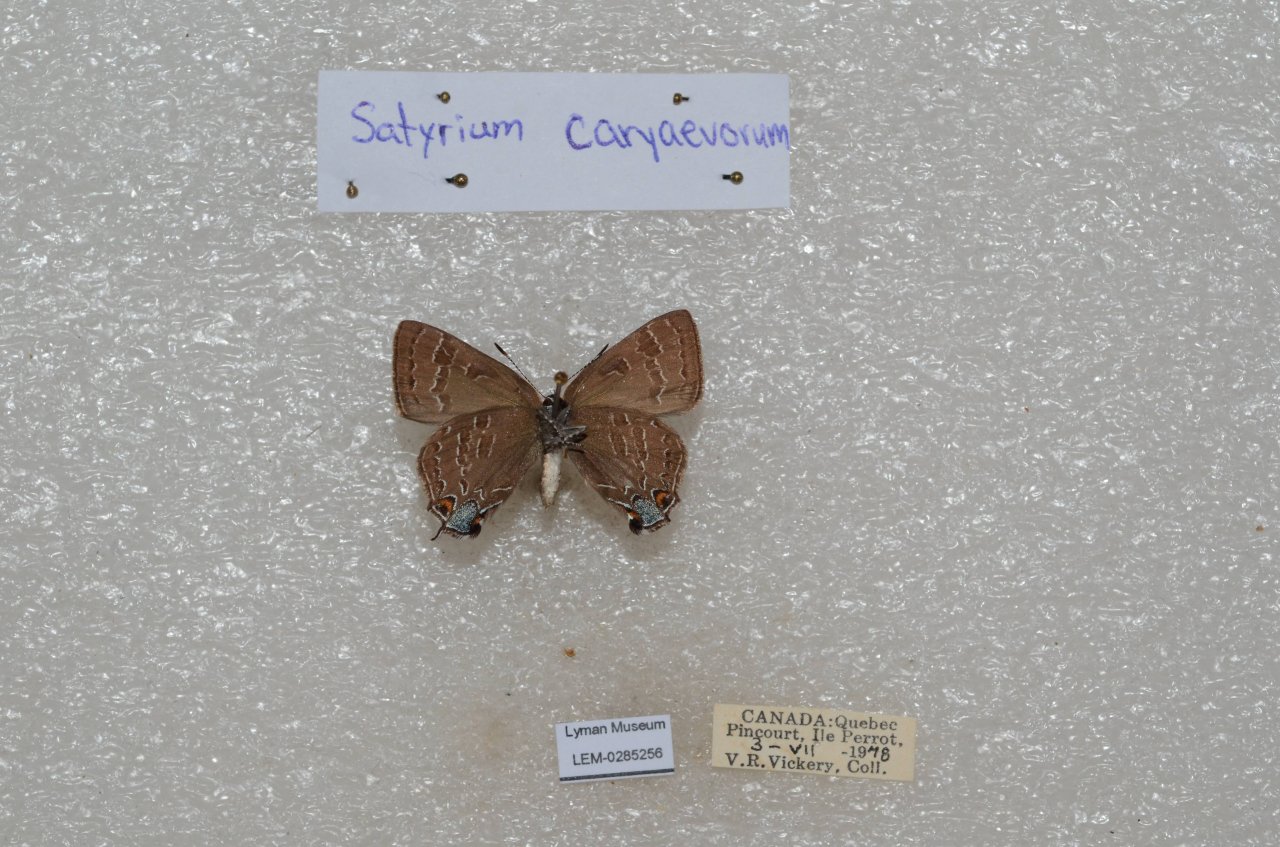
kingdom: Animalia
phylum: Arthropoda
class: Insecta
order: Lepidoptera
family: Lycaenidae
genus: Strymon
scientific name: Strymon caryaevorus
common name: Hickory Hairstreak
